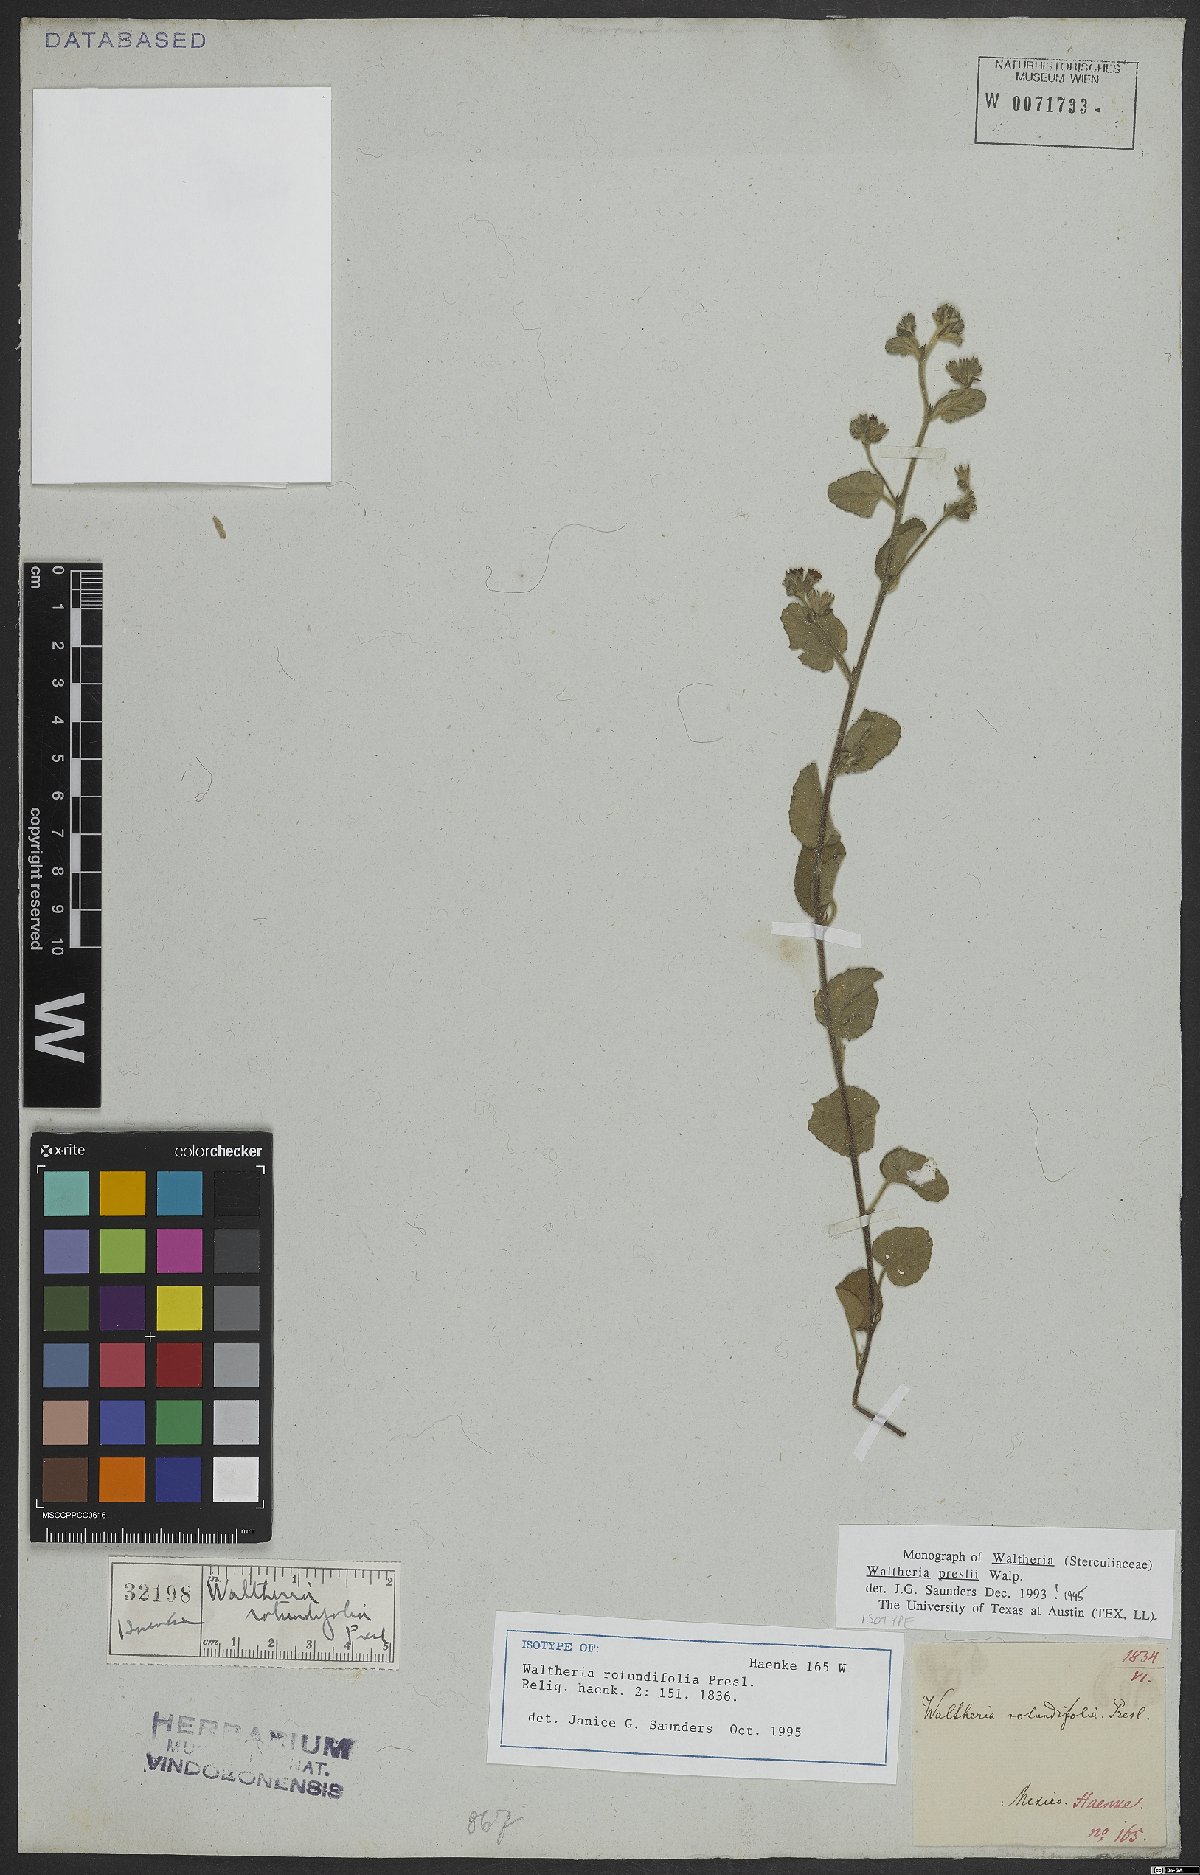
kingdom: Plantae
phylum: Tracheophyta
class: Magnoliopsida
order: Malvales
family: Malvaceae
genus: Waltheria
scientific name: Waltheria preslii
